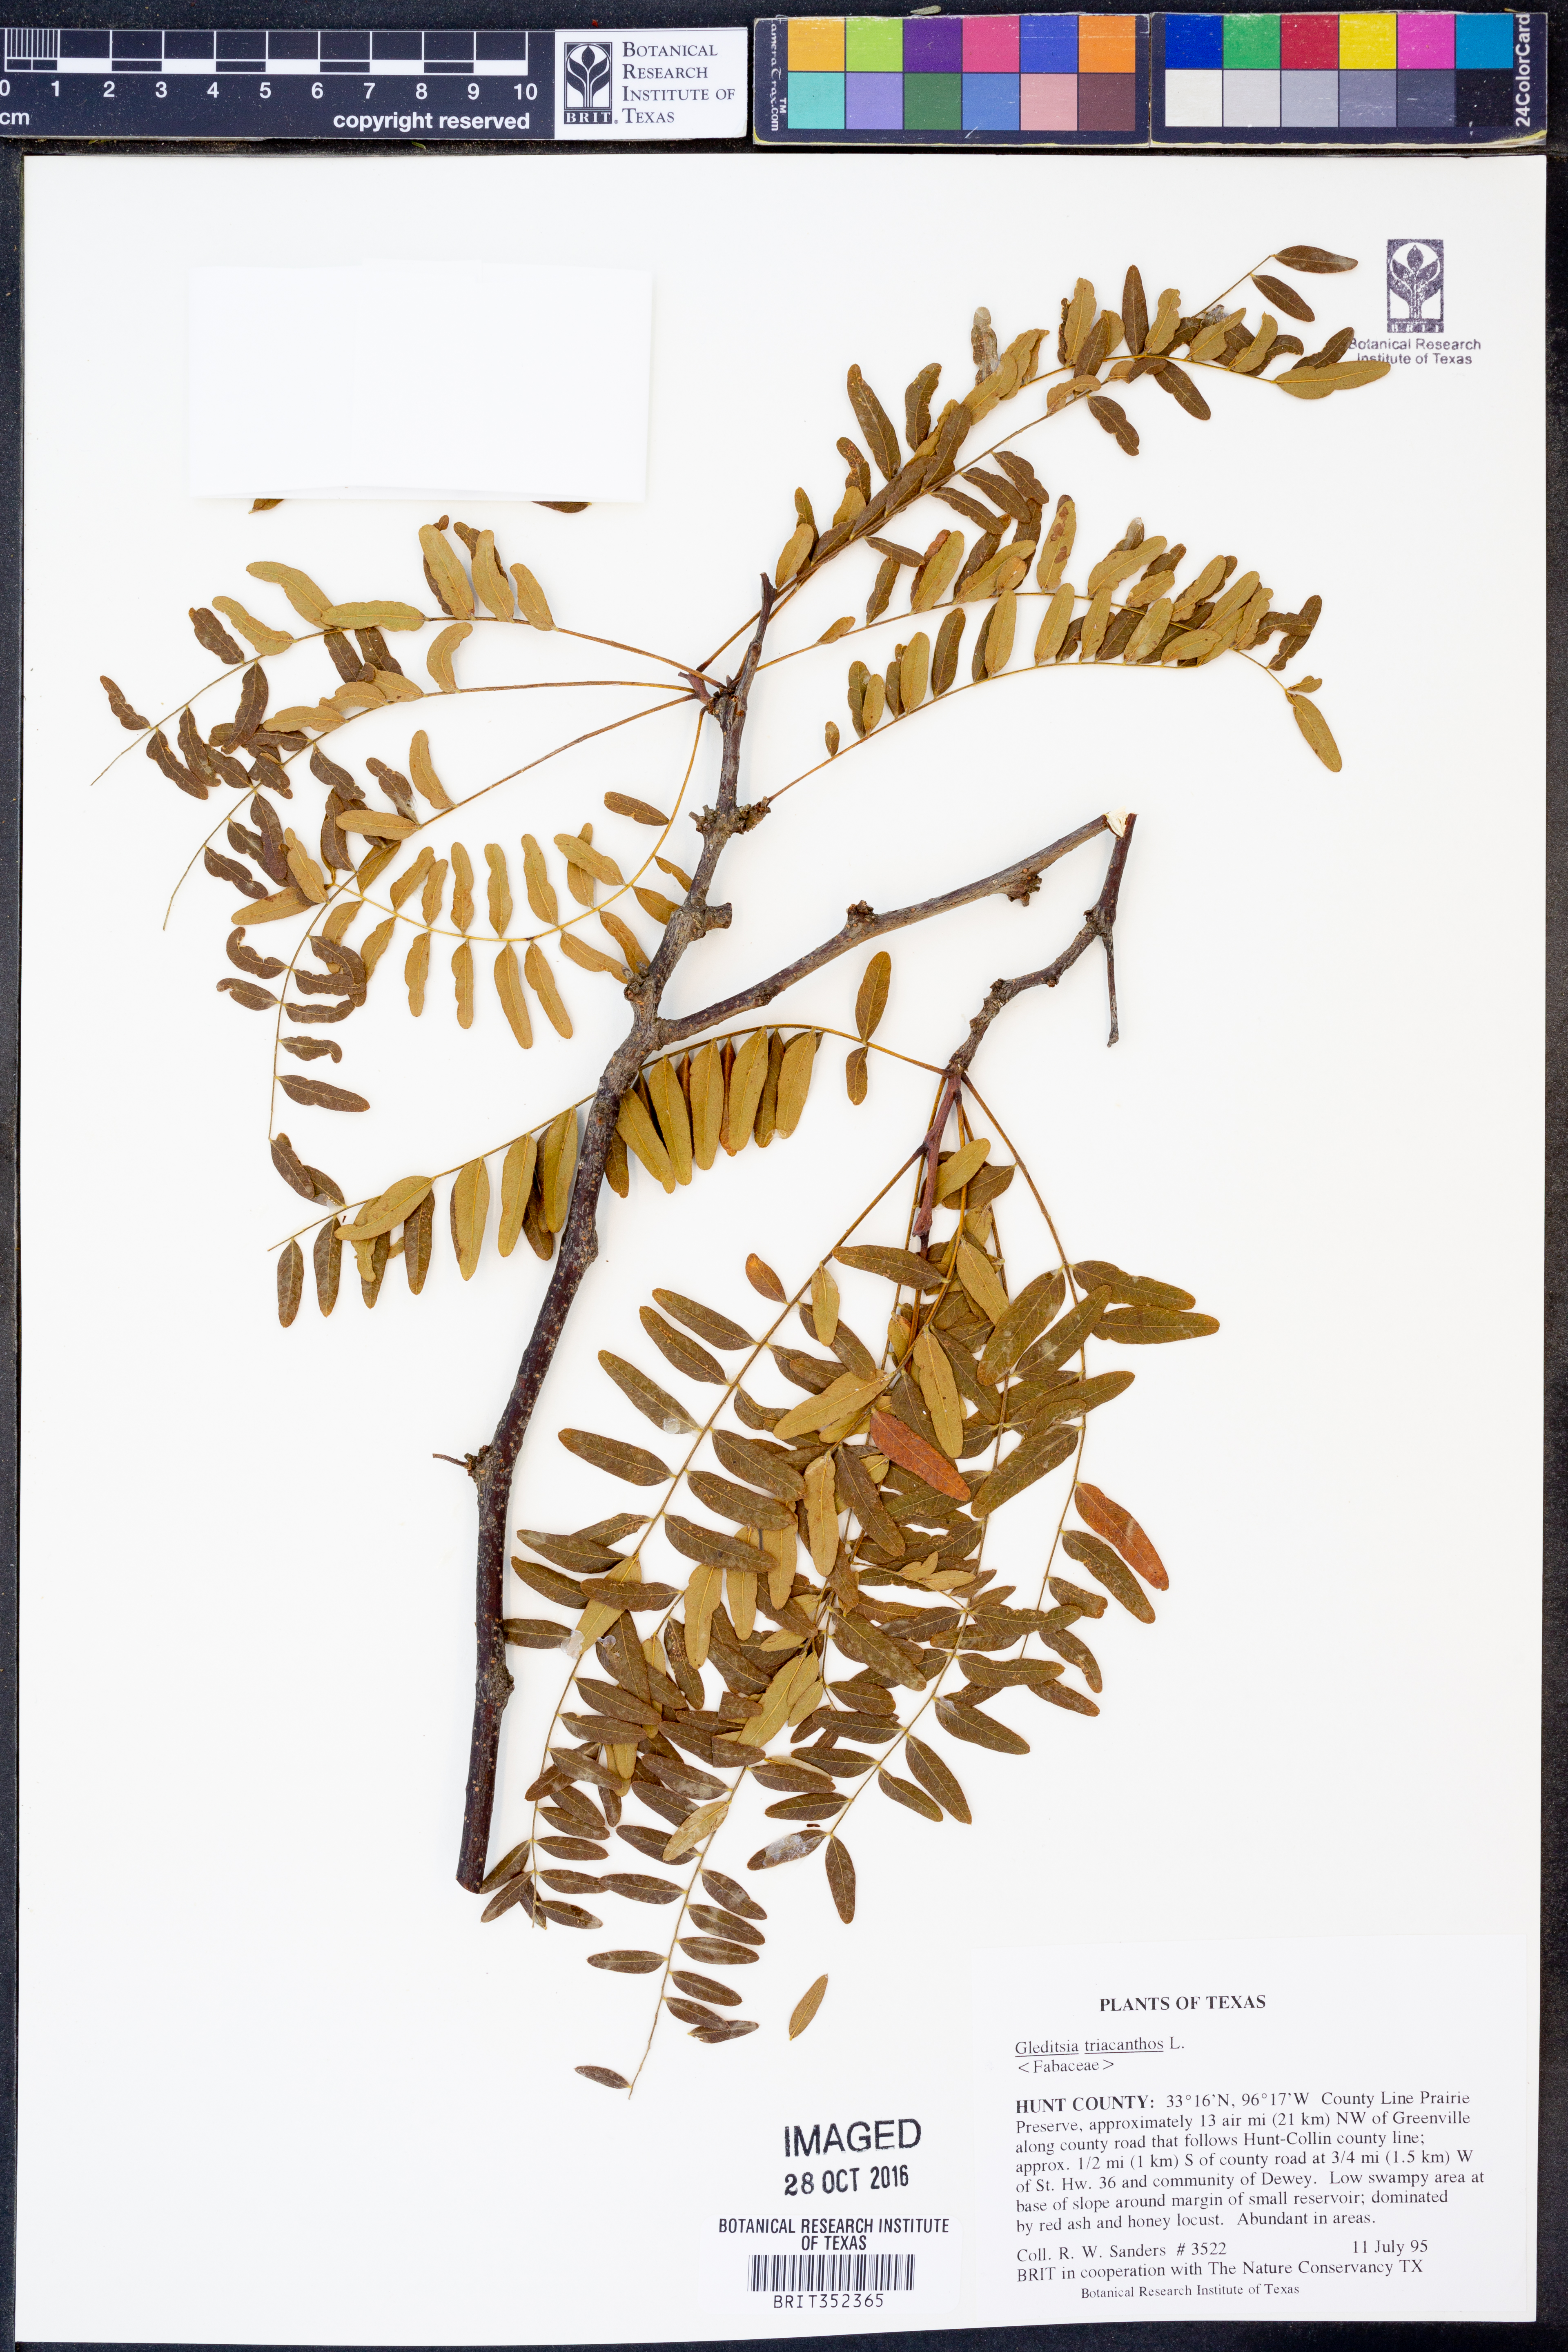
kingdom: Plantae
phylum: Tracheophyta
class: Magnoliopsida
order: Fabales
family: Fabaceae
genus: Gleditsia
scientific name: Gleditsia triacanthos
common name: Common honeylocust
